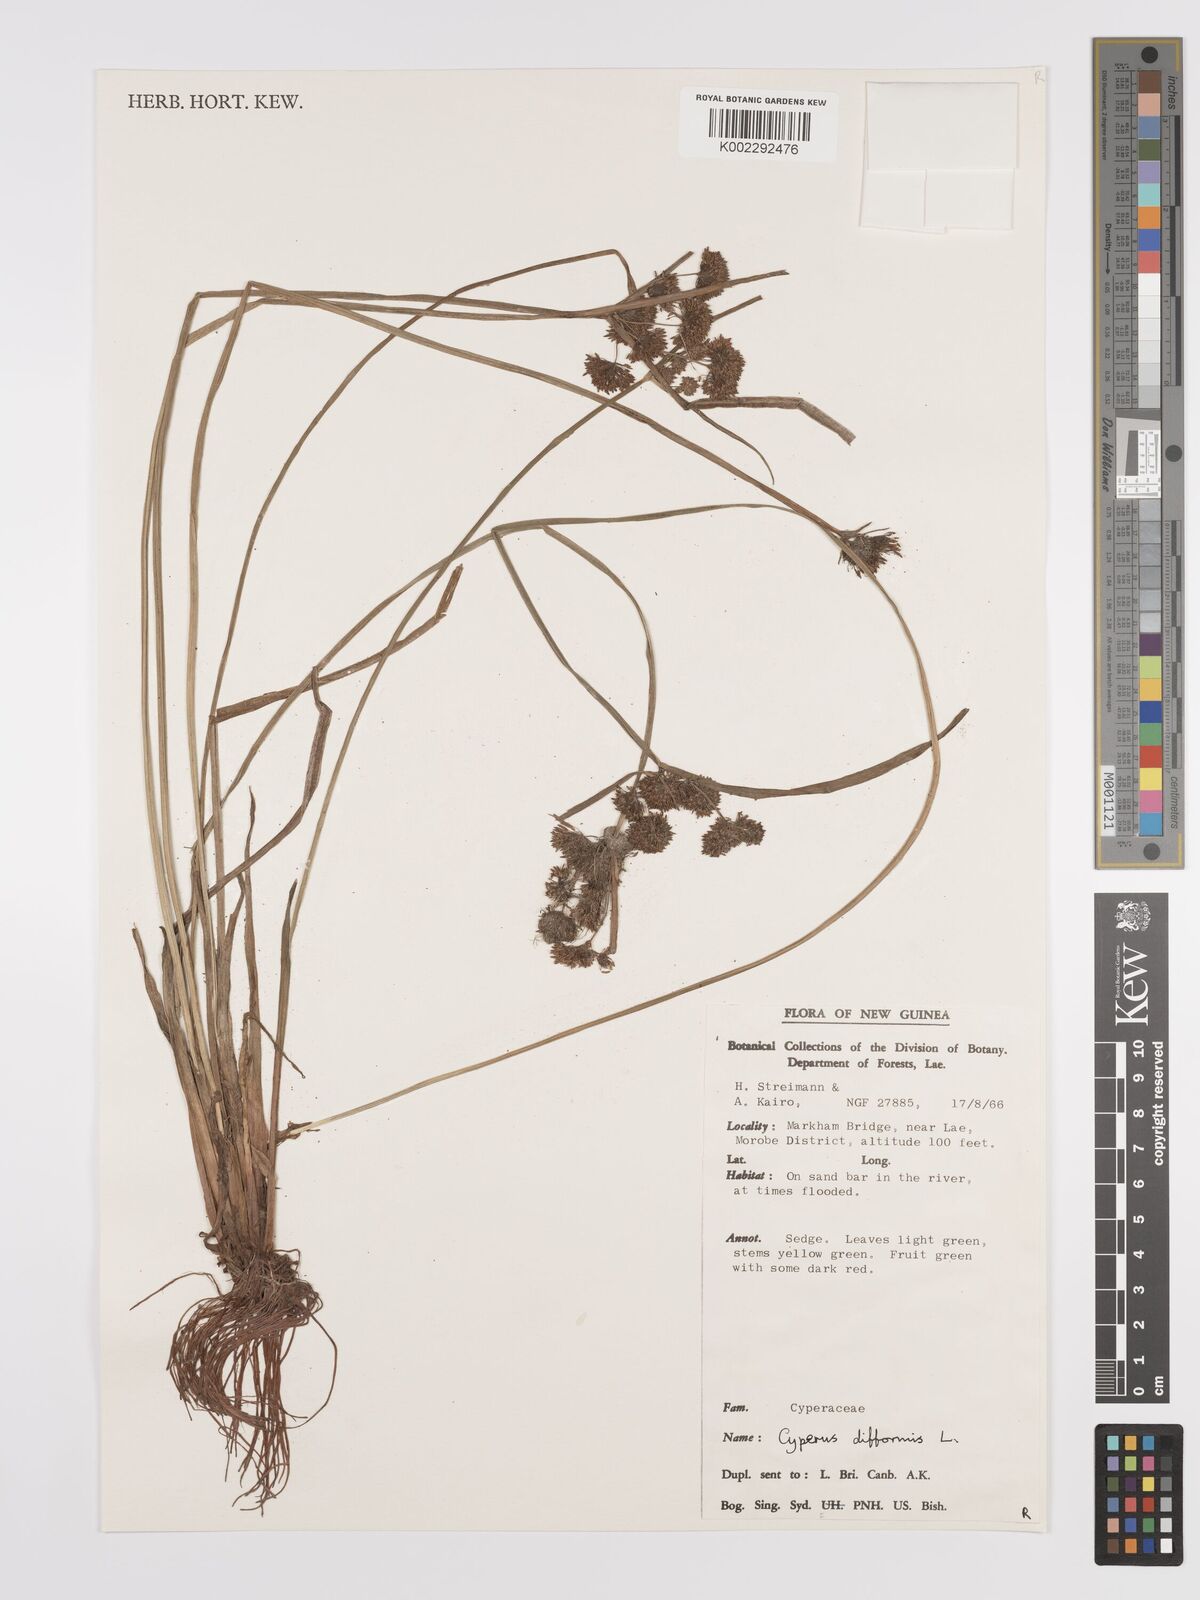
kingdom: Plantae
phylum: Tracheophyta
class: Liliopsida
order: Poales
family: Cyperaceae
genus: Cyperus
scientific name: Cyperus difformis
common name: Variable flatsedge
